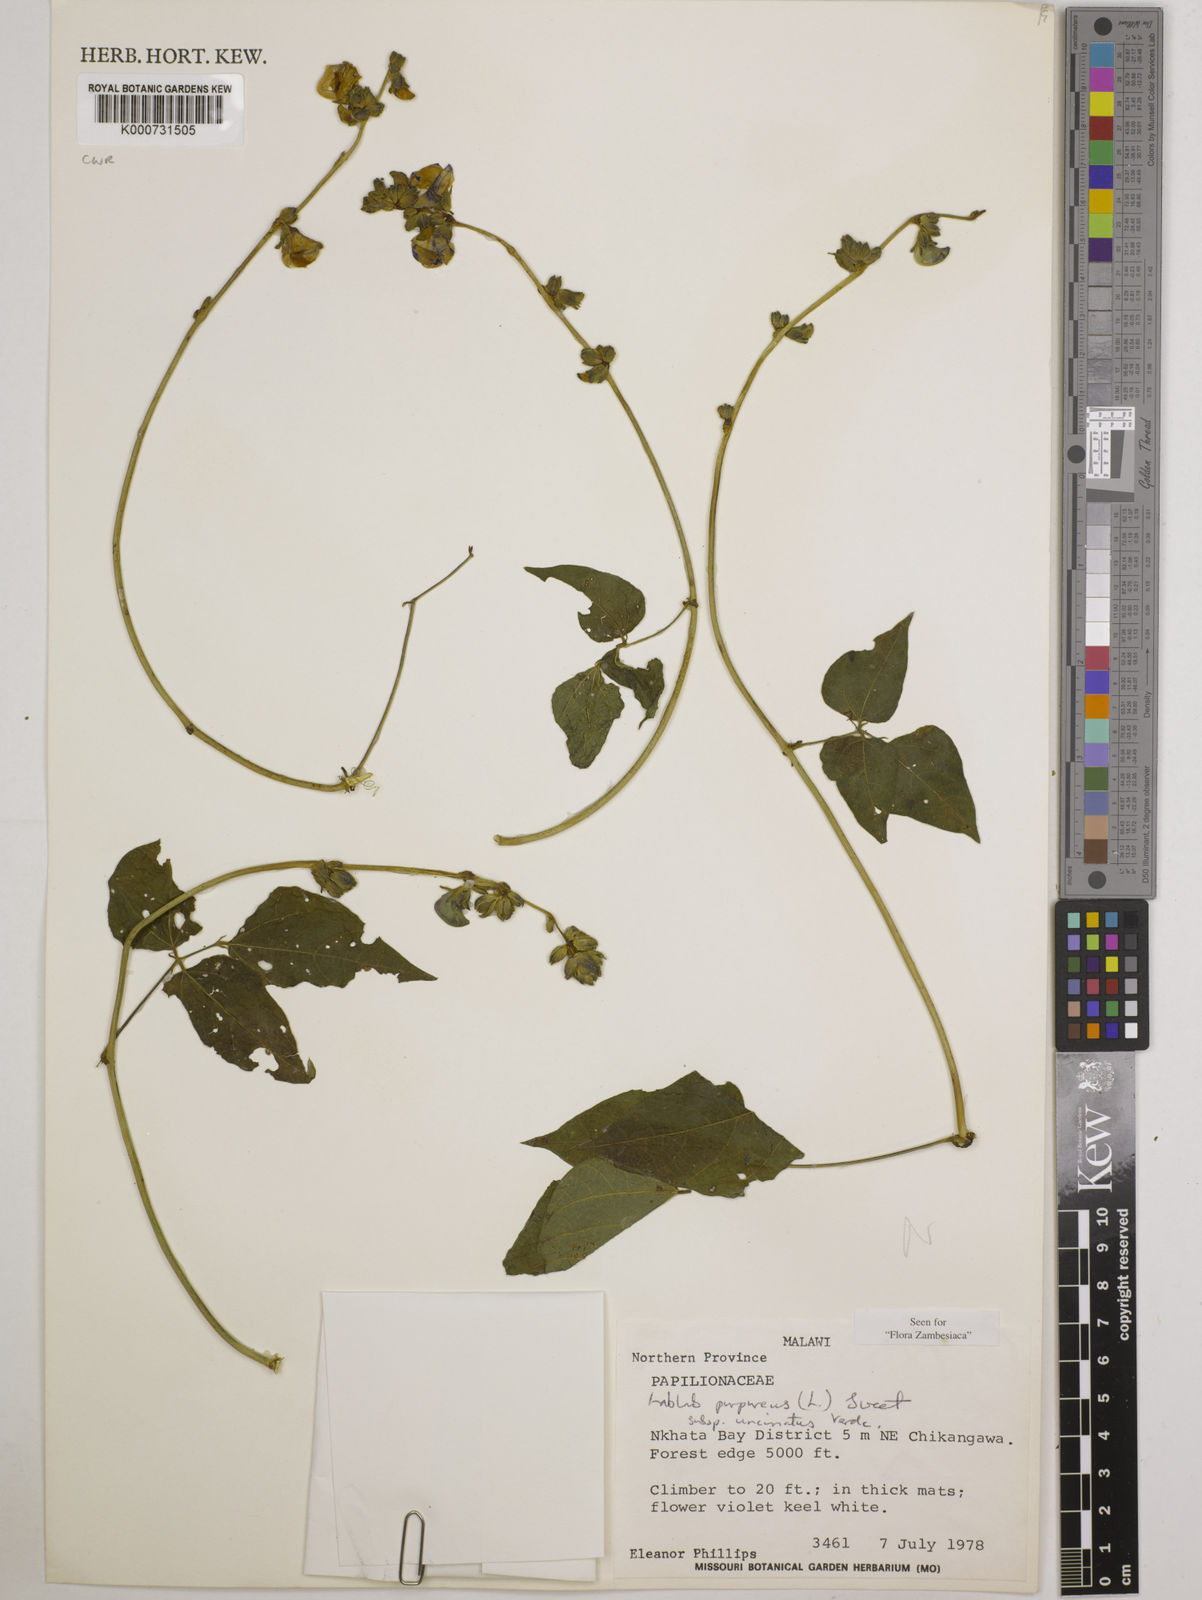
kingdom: Plantae
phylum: Tracheophyta
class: Magnoliopsida
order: Fabales
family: Fabaceae
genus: Lablab
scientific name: Lablab purpureus
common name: Lablab-bean
